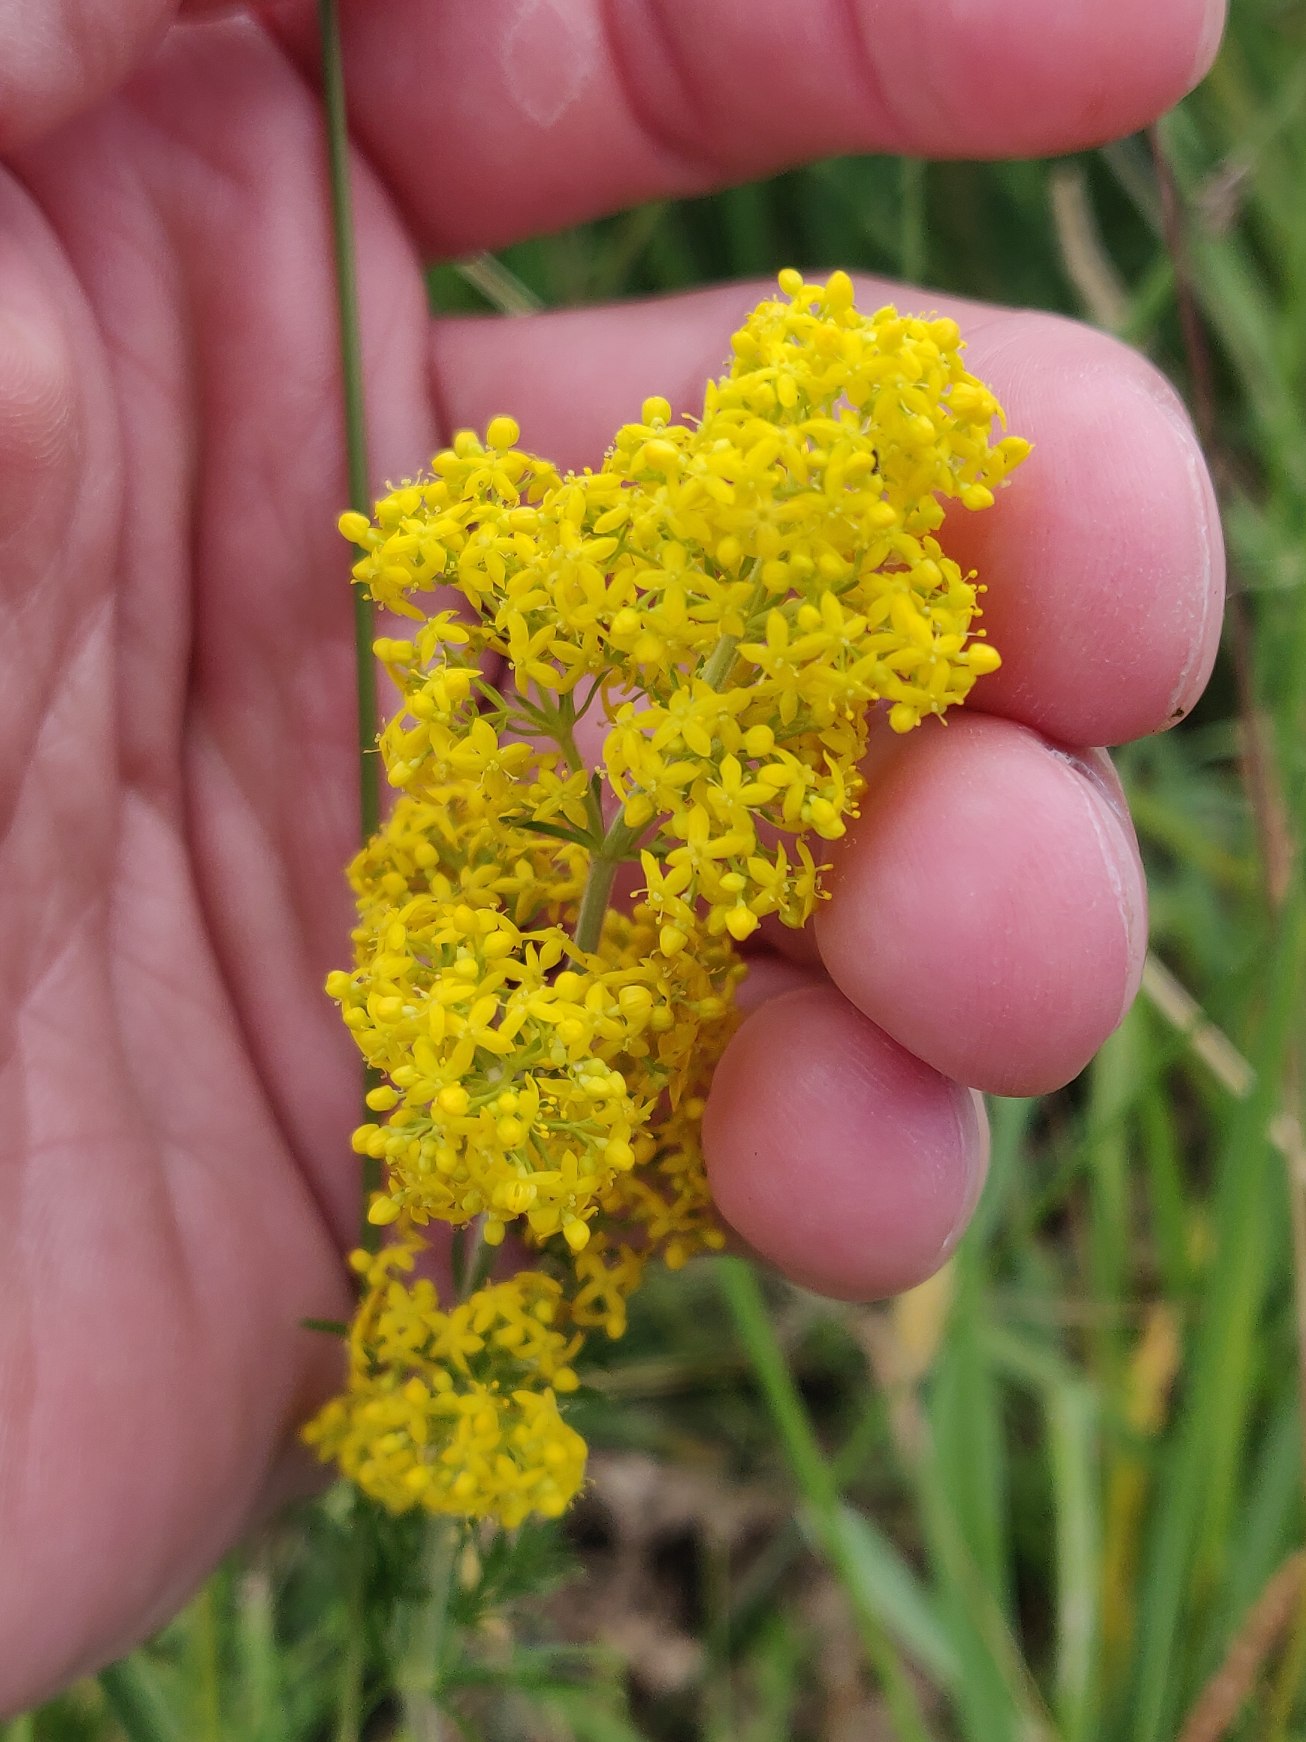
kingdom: Plantae
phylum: Tracheophyta
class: Magnoliopsida
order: Gentianales
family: Rubiaceae
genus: Galium
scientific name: Galium verum
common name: Gul snerre
